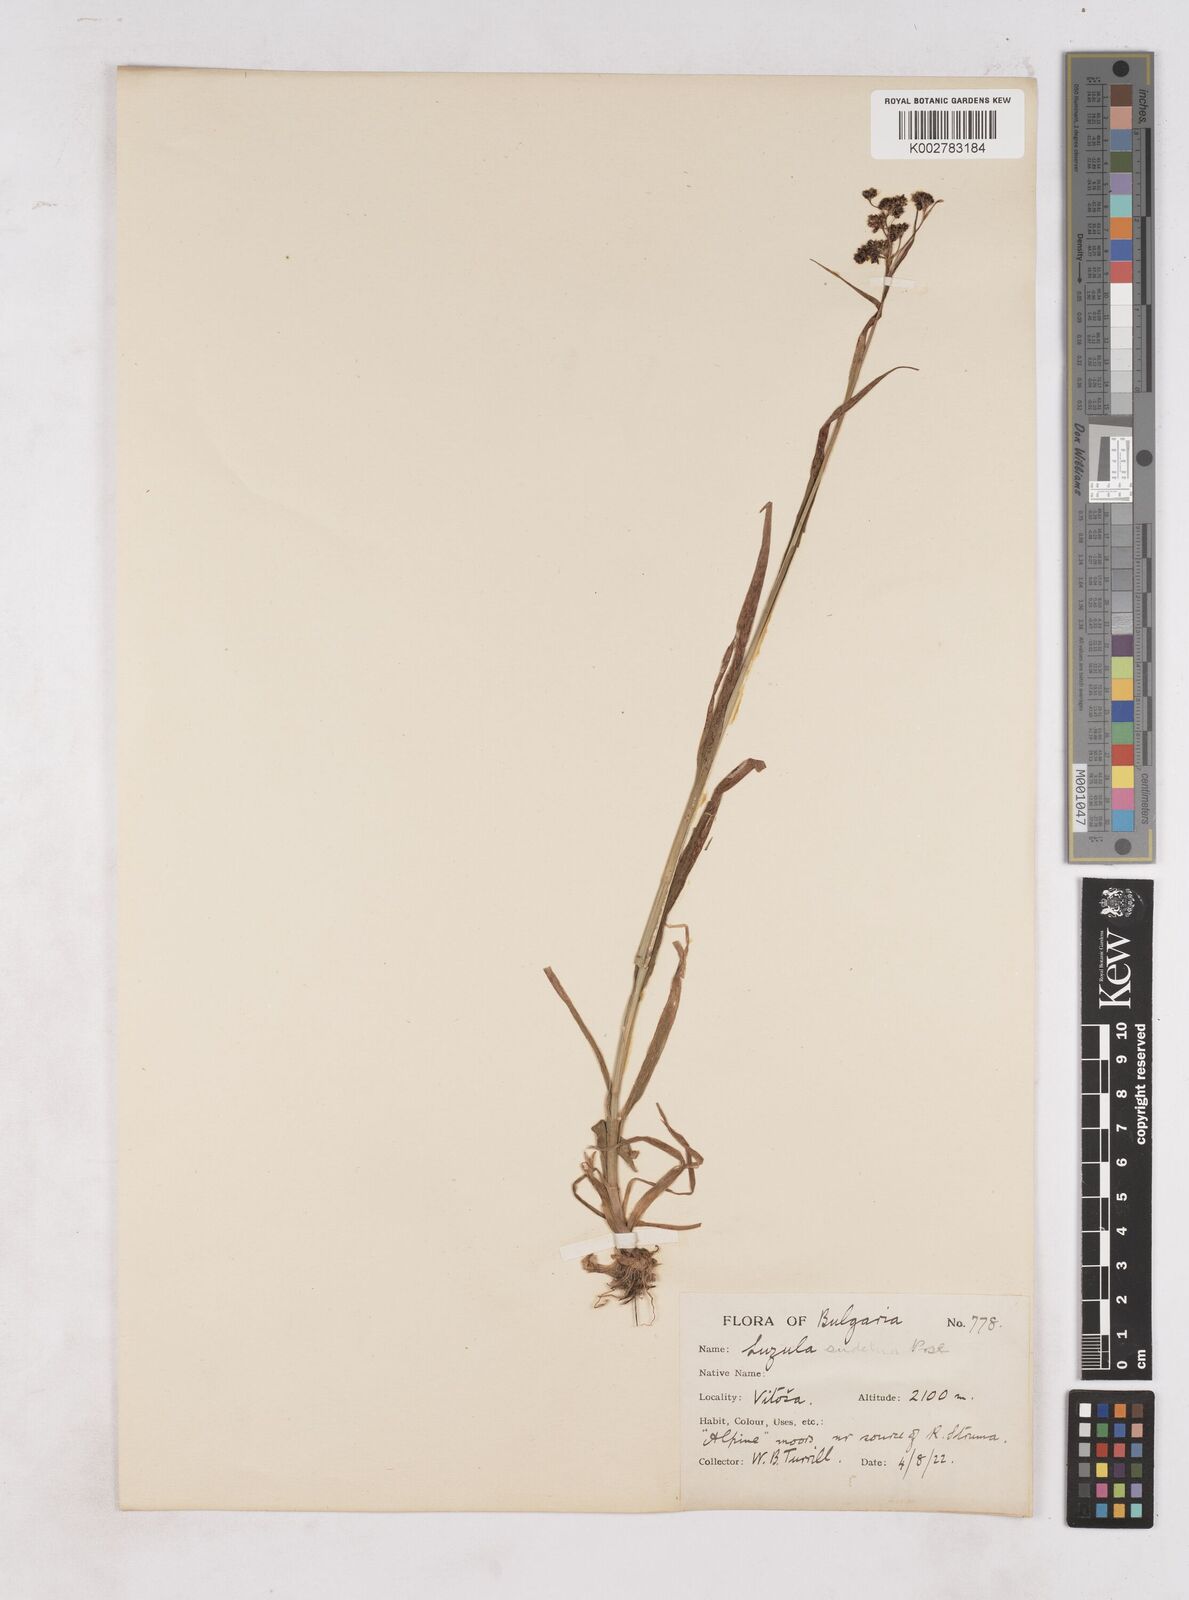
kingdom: Plantae
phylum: Tracheophyta
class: Liliopsida
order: Poales
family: Juncaceae
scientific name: Juncaceae
